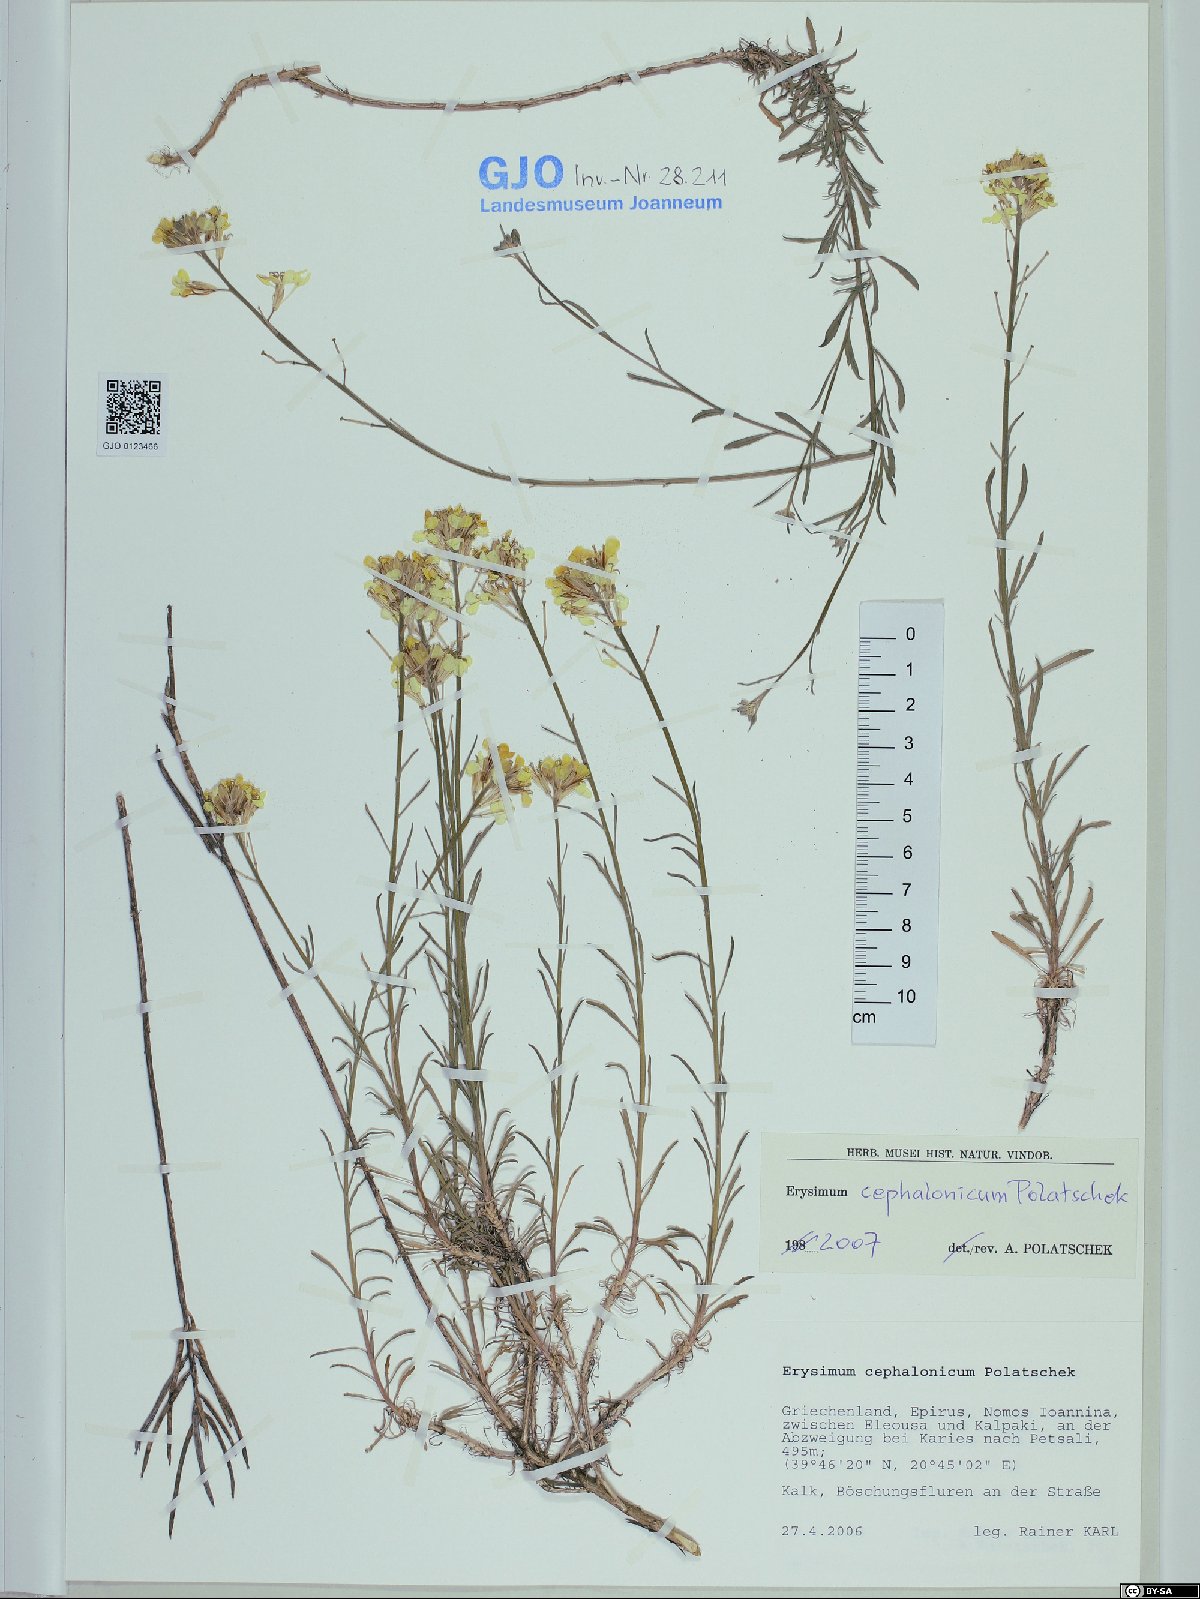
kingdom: Plantae
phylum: Tracheophyta
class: Magnoliopsida
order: Brassicales
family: Brassicaceae
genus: Erysimum
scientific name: Erysimum pusillum
